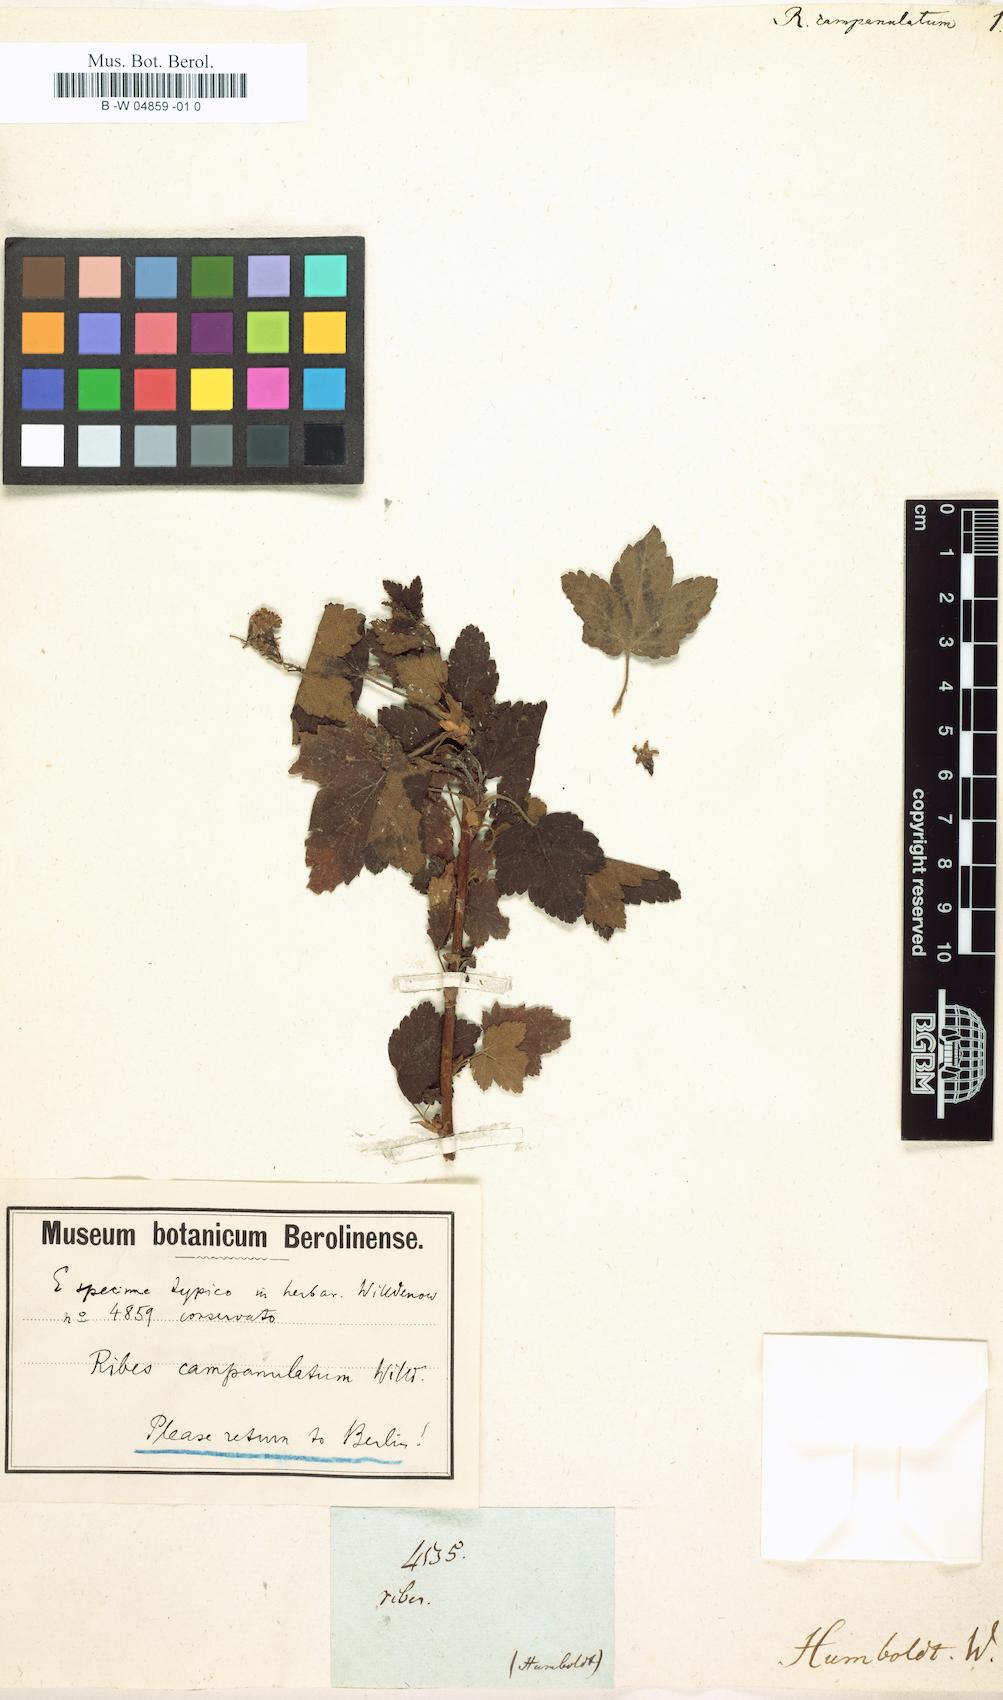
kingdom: Plantae
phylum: Tracheophyta
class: Magnoliopsida
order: Saxifragales
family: Grossulariaceae
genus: Ribes
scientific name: Ribes
